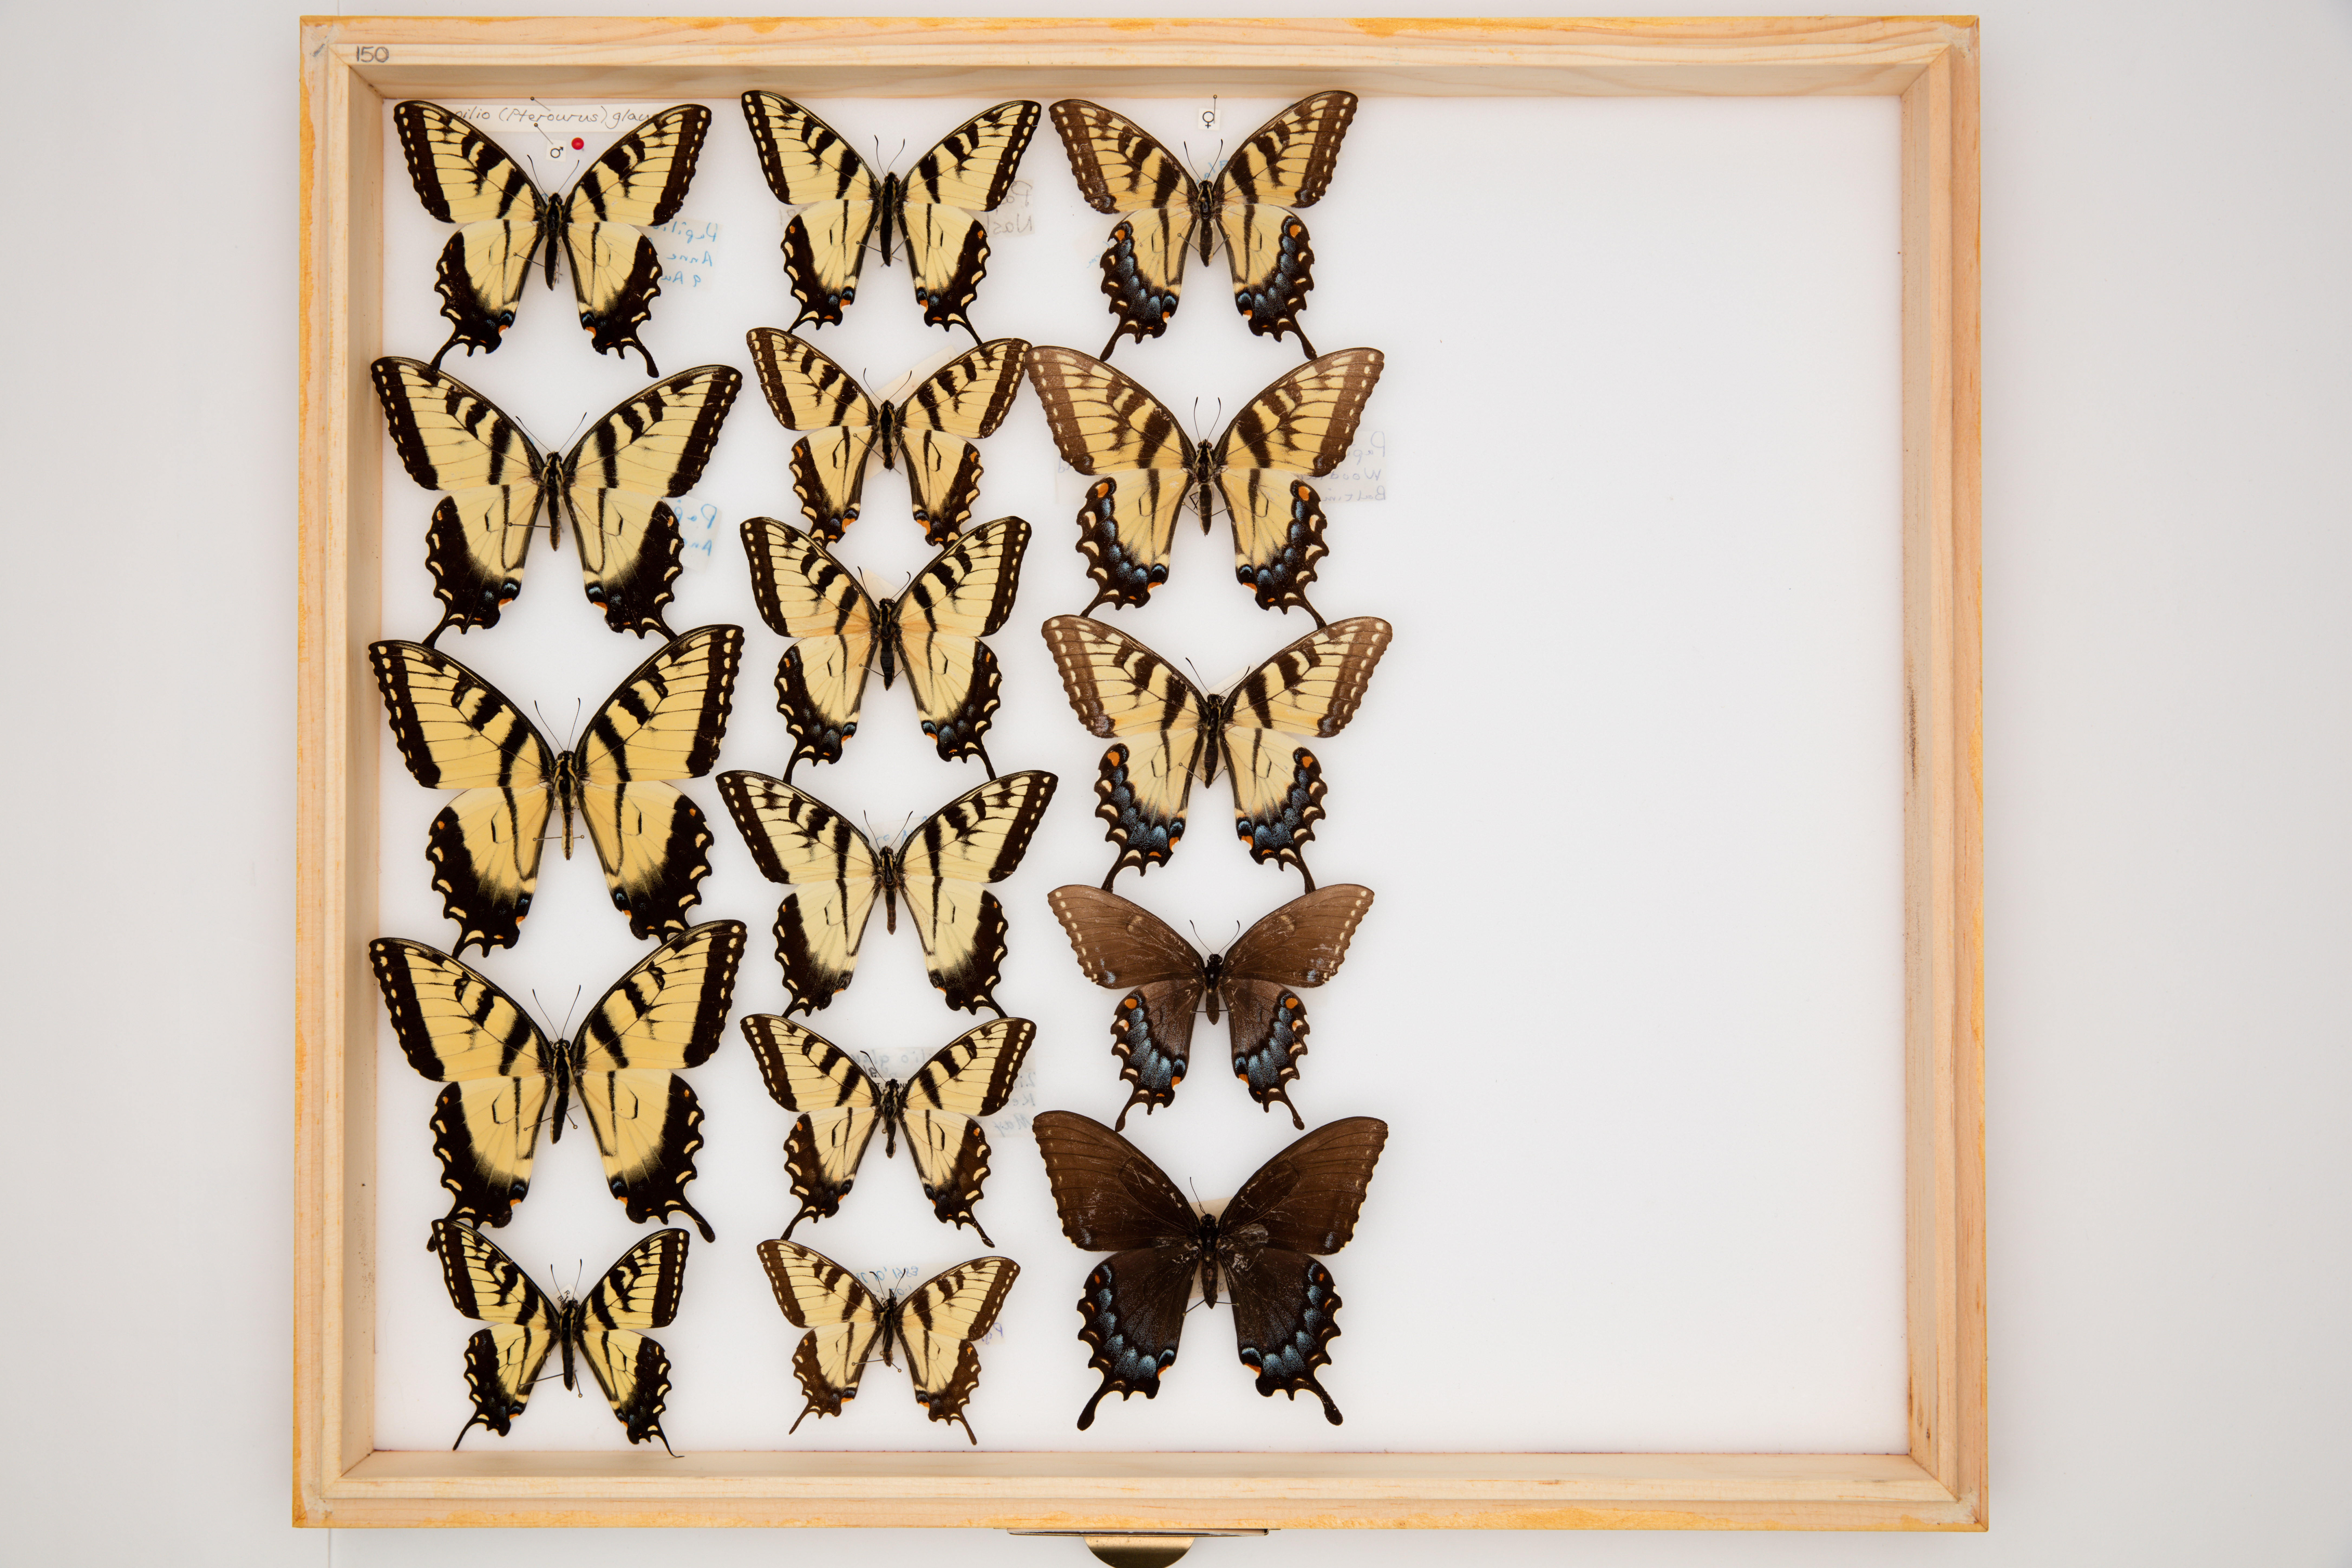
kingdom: Animalia
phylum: Arthropoda
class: Insecta
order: Lepidoptera
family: Papilionidae
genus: Papilio
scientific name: Papilio glaucus
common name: Tiger swallowtail
